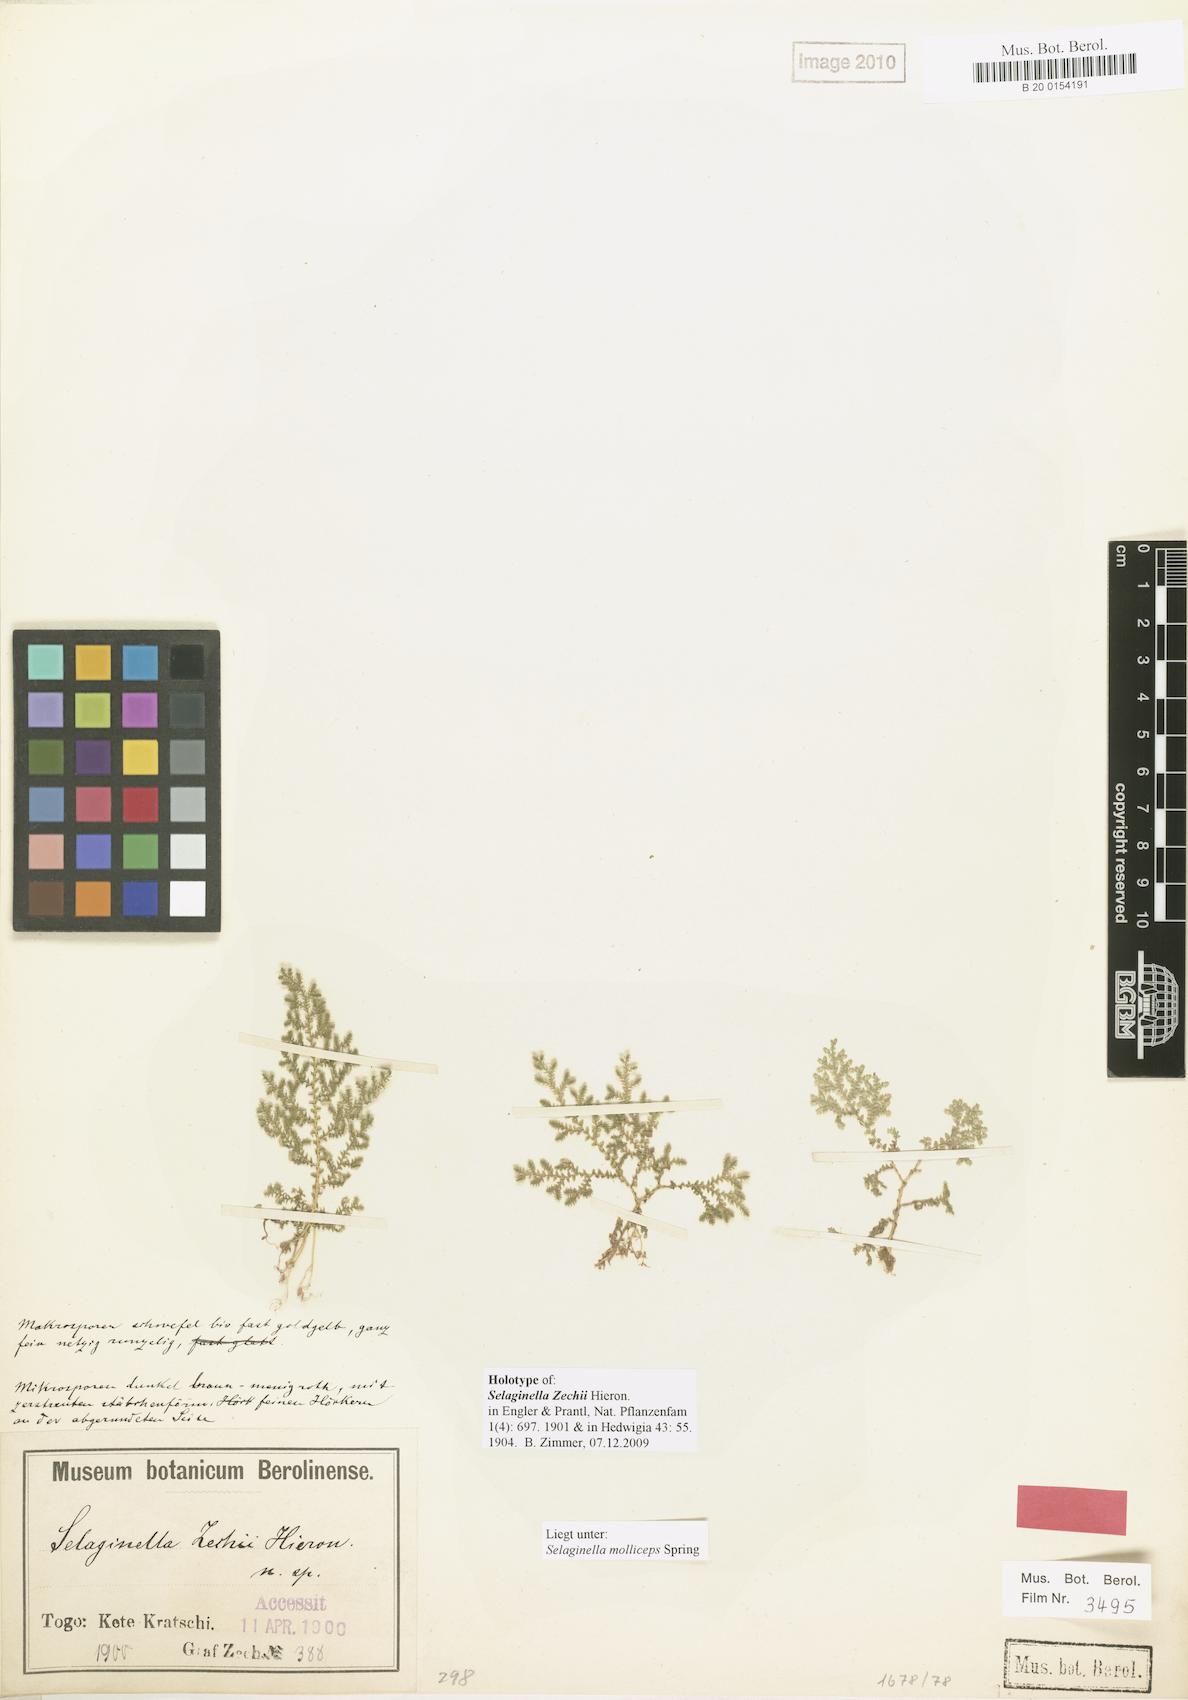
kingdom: Plantae
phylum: Tracheophyta
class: Lycopodiopsida
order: Selaginellales
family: Selaginellaceae
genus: Selaginella
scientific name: Selaginella zechii
